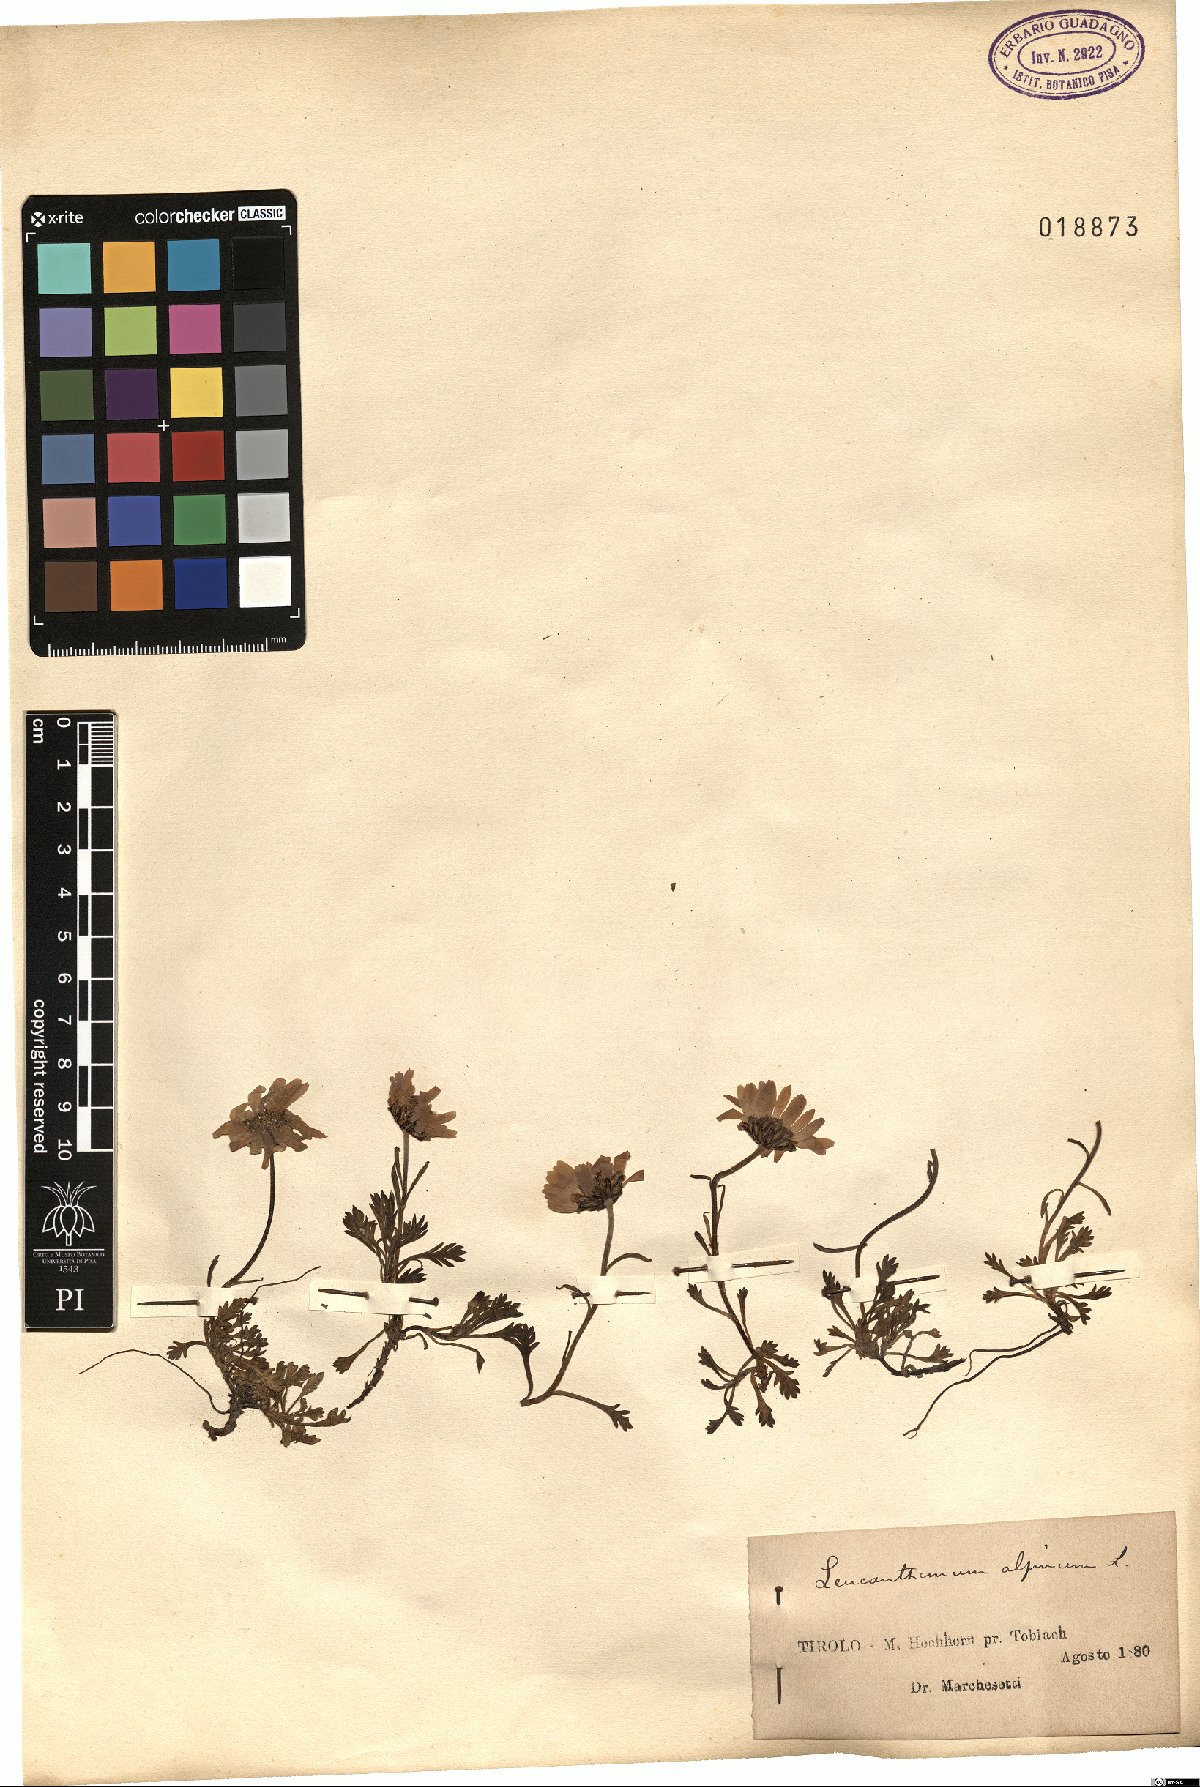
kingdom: Plantae
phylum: Tracheophyta
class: Magnoliopsida
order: Asterales
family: Asteraceae
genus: Leucanthemopsis
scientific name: Leucanthemopsis alpina
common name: Alpine moon daisy
